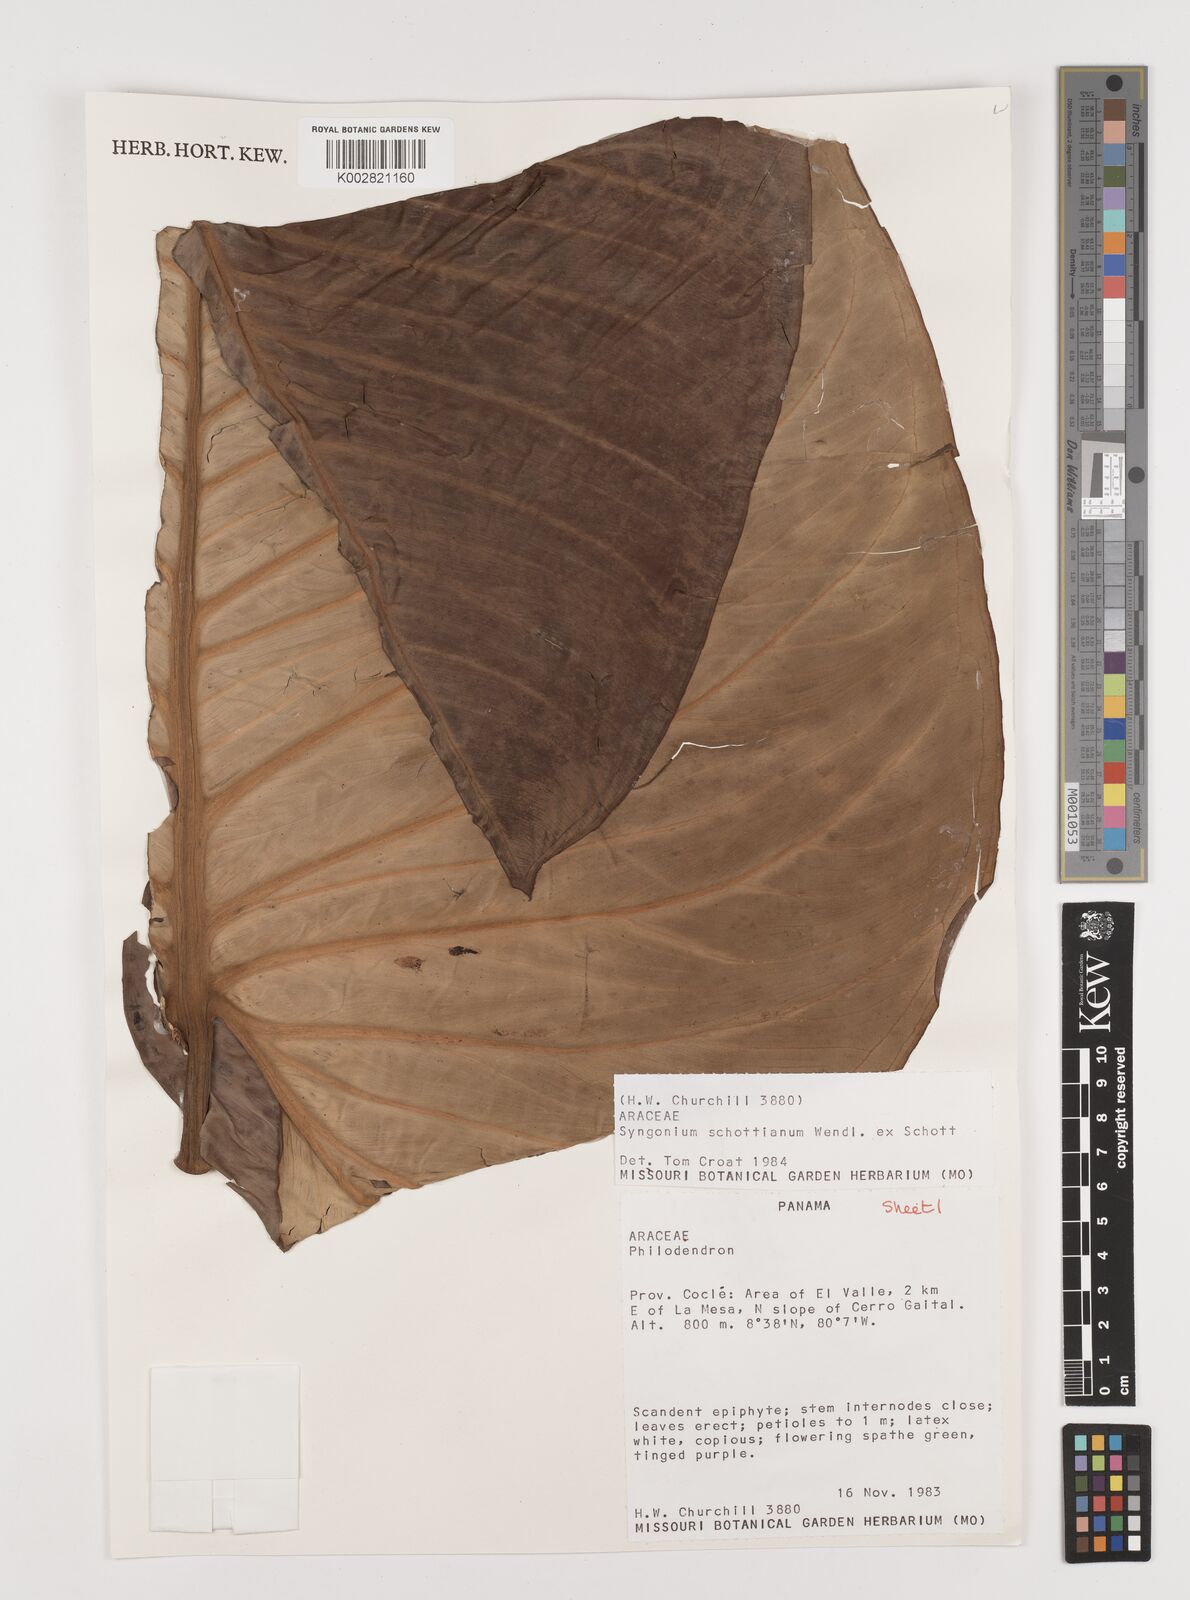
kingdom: Plantae
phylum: Tracheophyta
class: Liliopsida
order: Alismatales
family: Araceae
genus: Syngonium
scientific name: Syngonium schottianum
